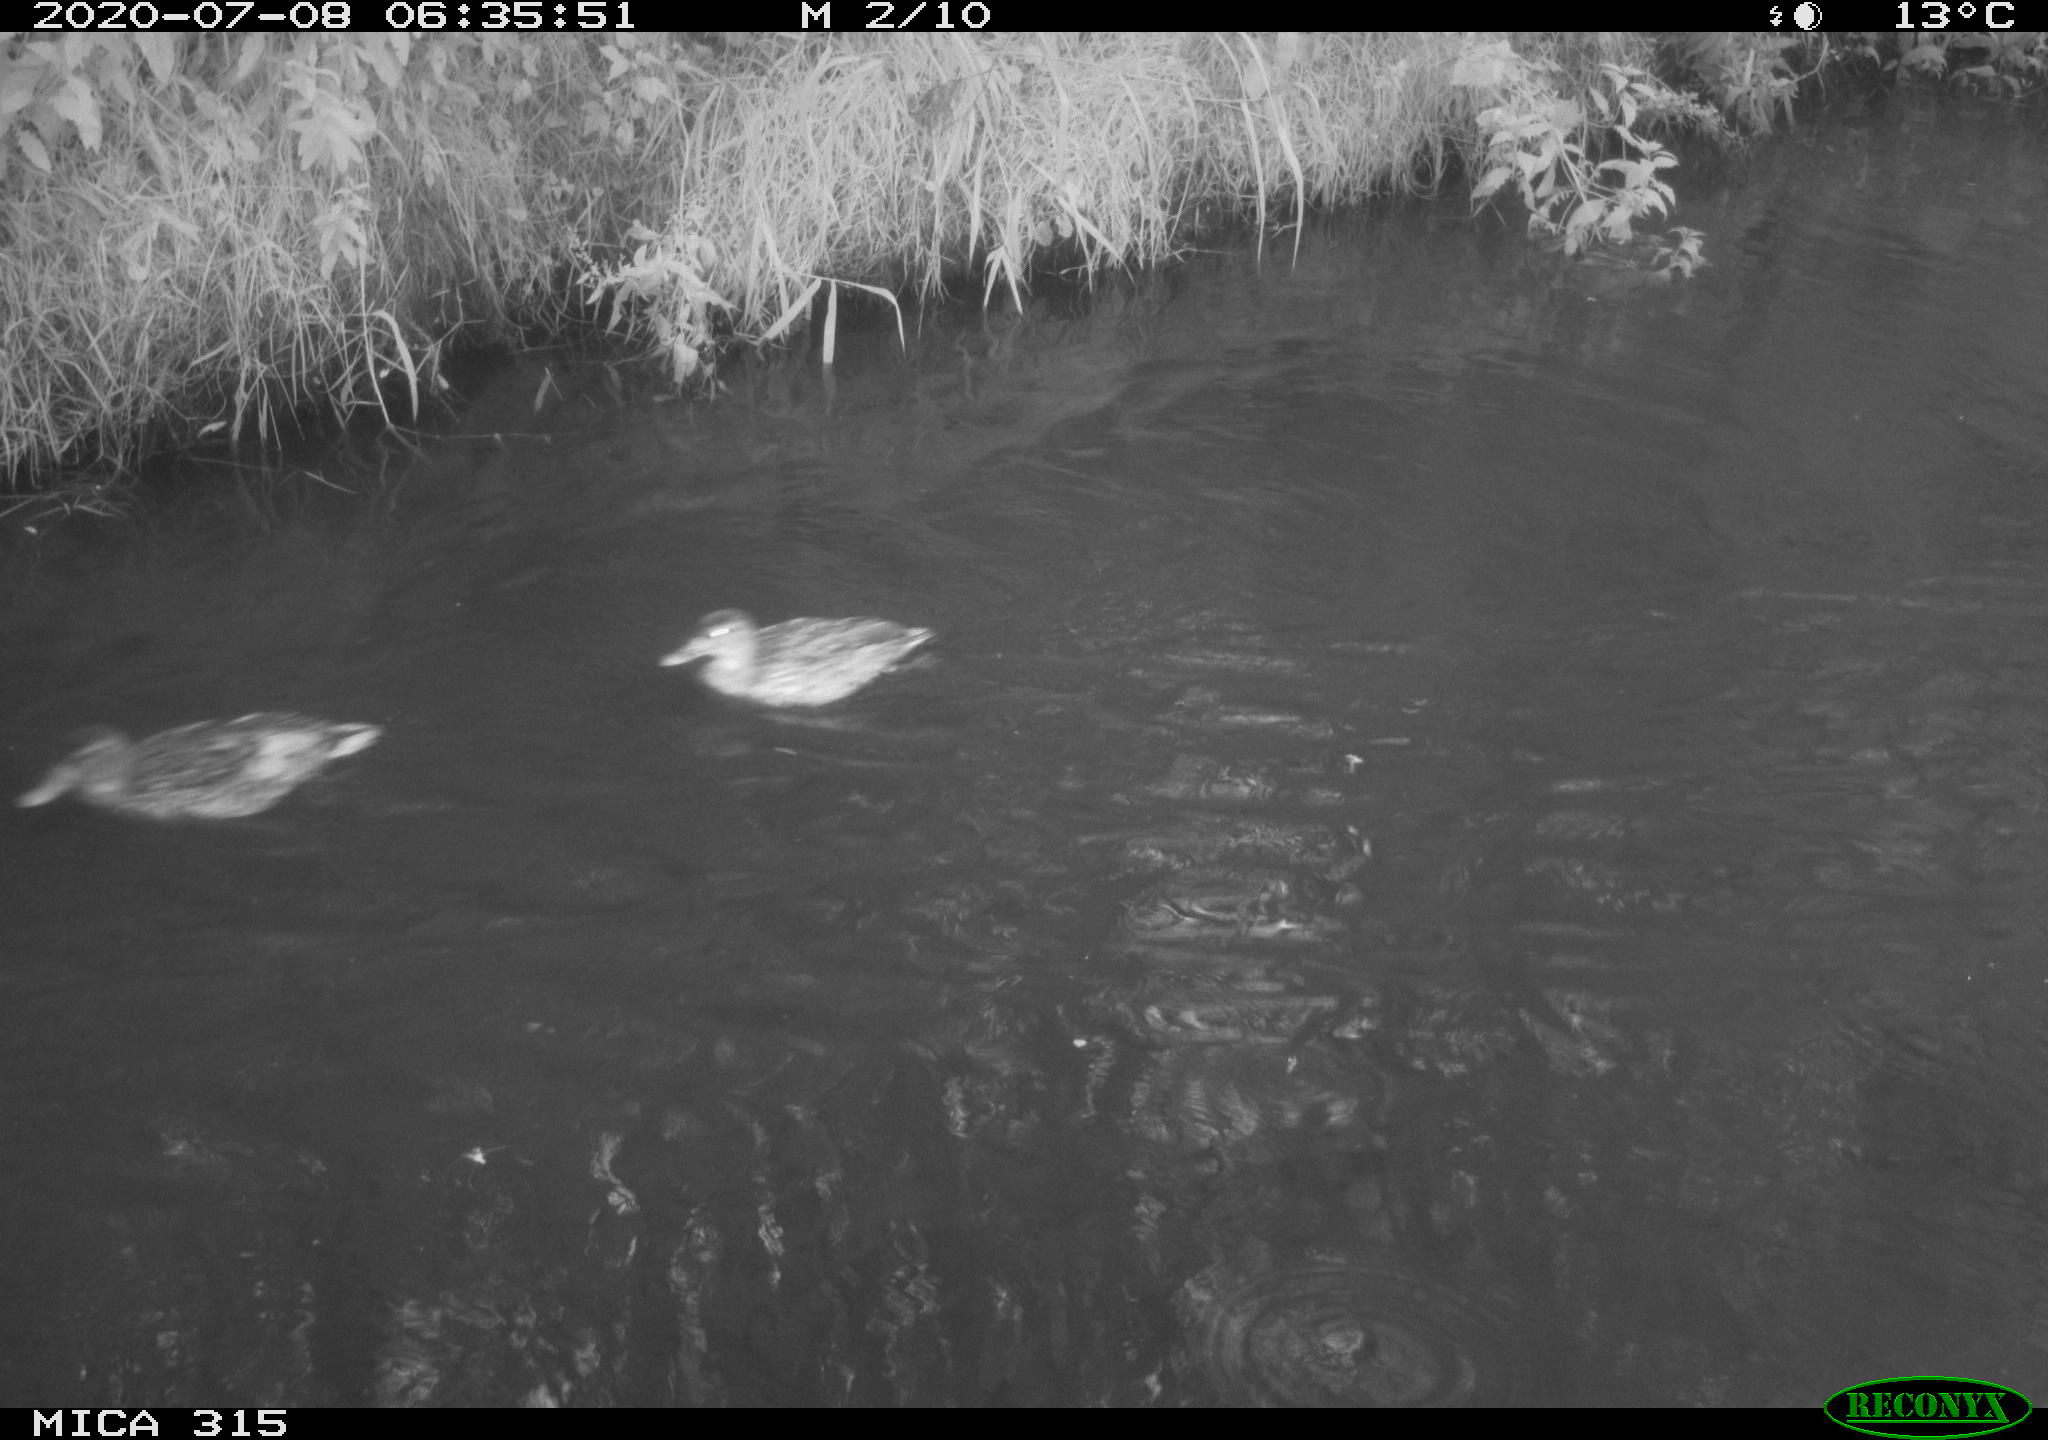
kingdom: Animalia
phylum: Chordata
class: Aves
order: Anseriformes
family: Anatidae
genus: Anas
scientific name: Anas platyrhynchos
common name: Mallard
